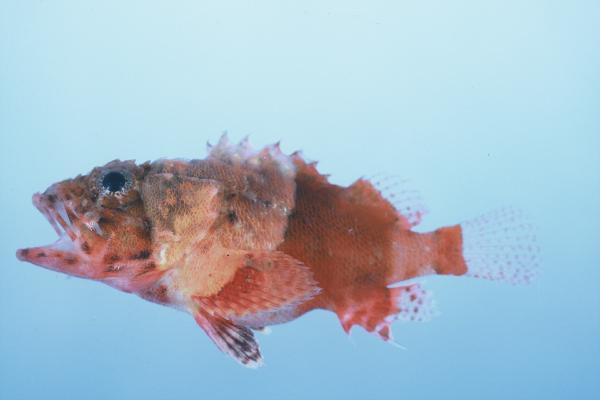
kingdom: Animalia
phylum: Chordata
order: Scorpaeniformes
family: Scorpaenidae
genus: Scorpaenodes
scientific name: Scorpaenodes parvipinnis
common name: Coral scorpionfish
